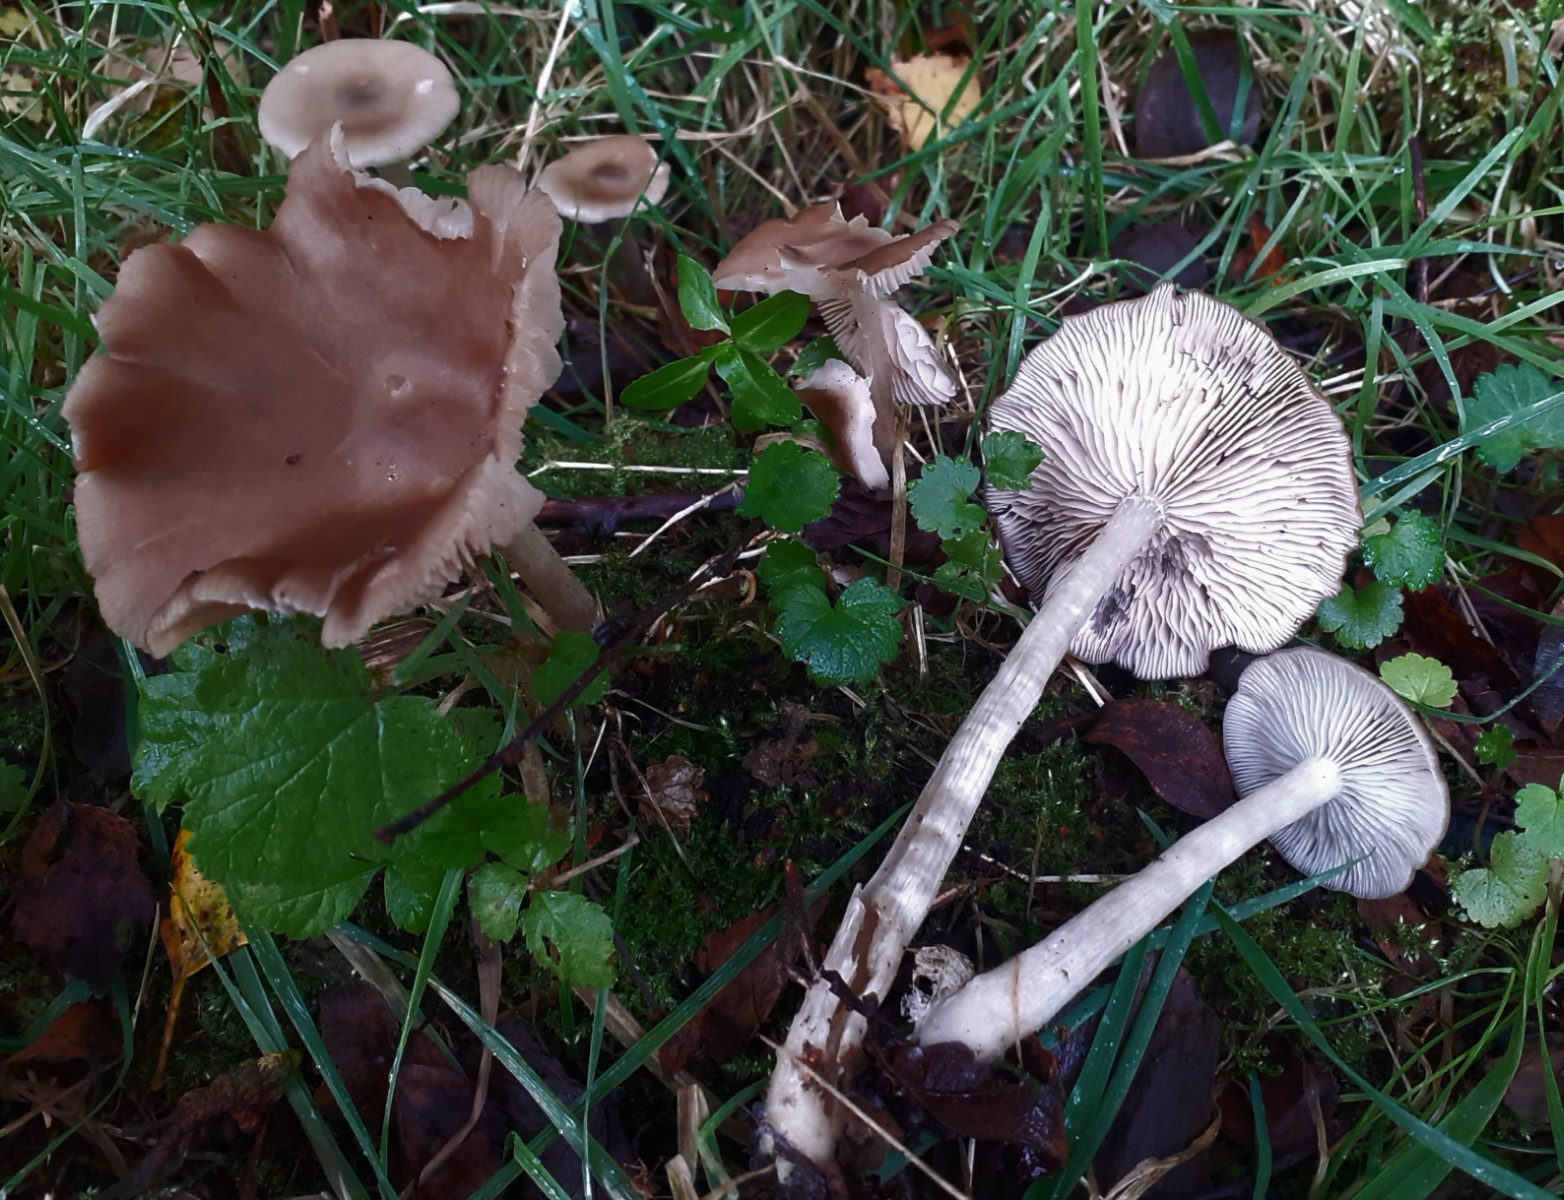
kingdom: Fungi
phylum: Basidiomycota
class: Agaricomycetes
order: Agaricales
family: Entolomataceae
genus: Entoloma
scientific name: Entoloma sericatum
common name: rank rødblad
